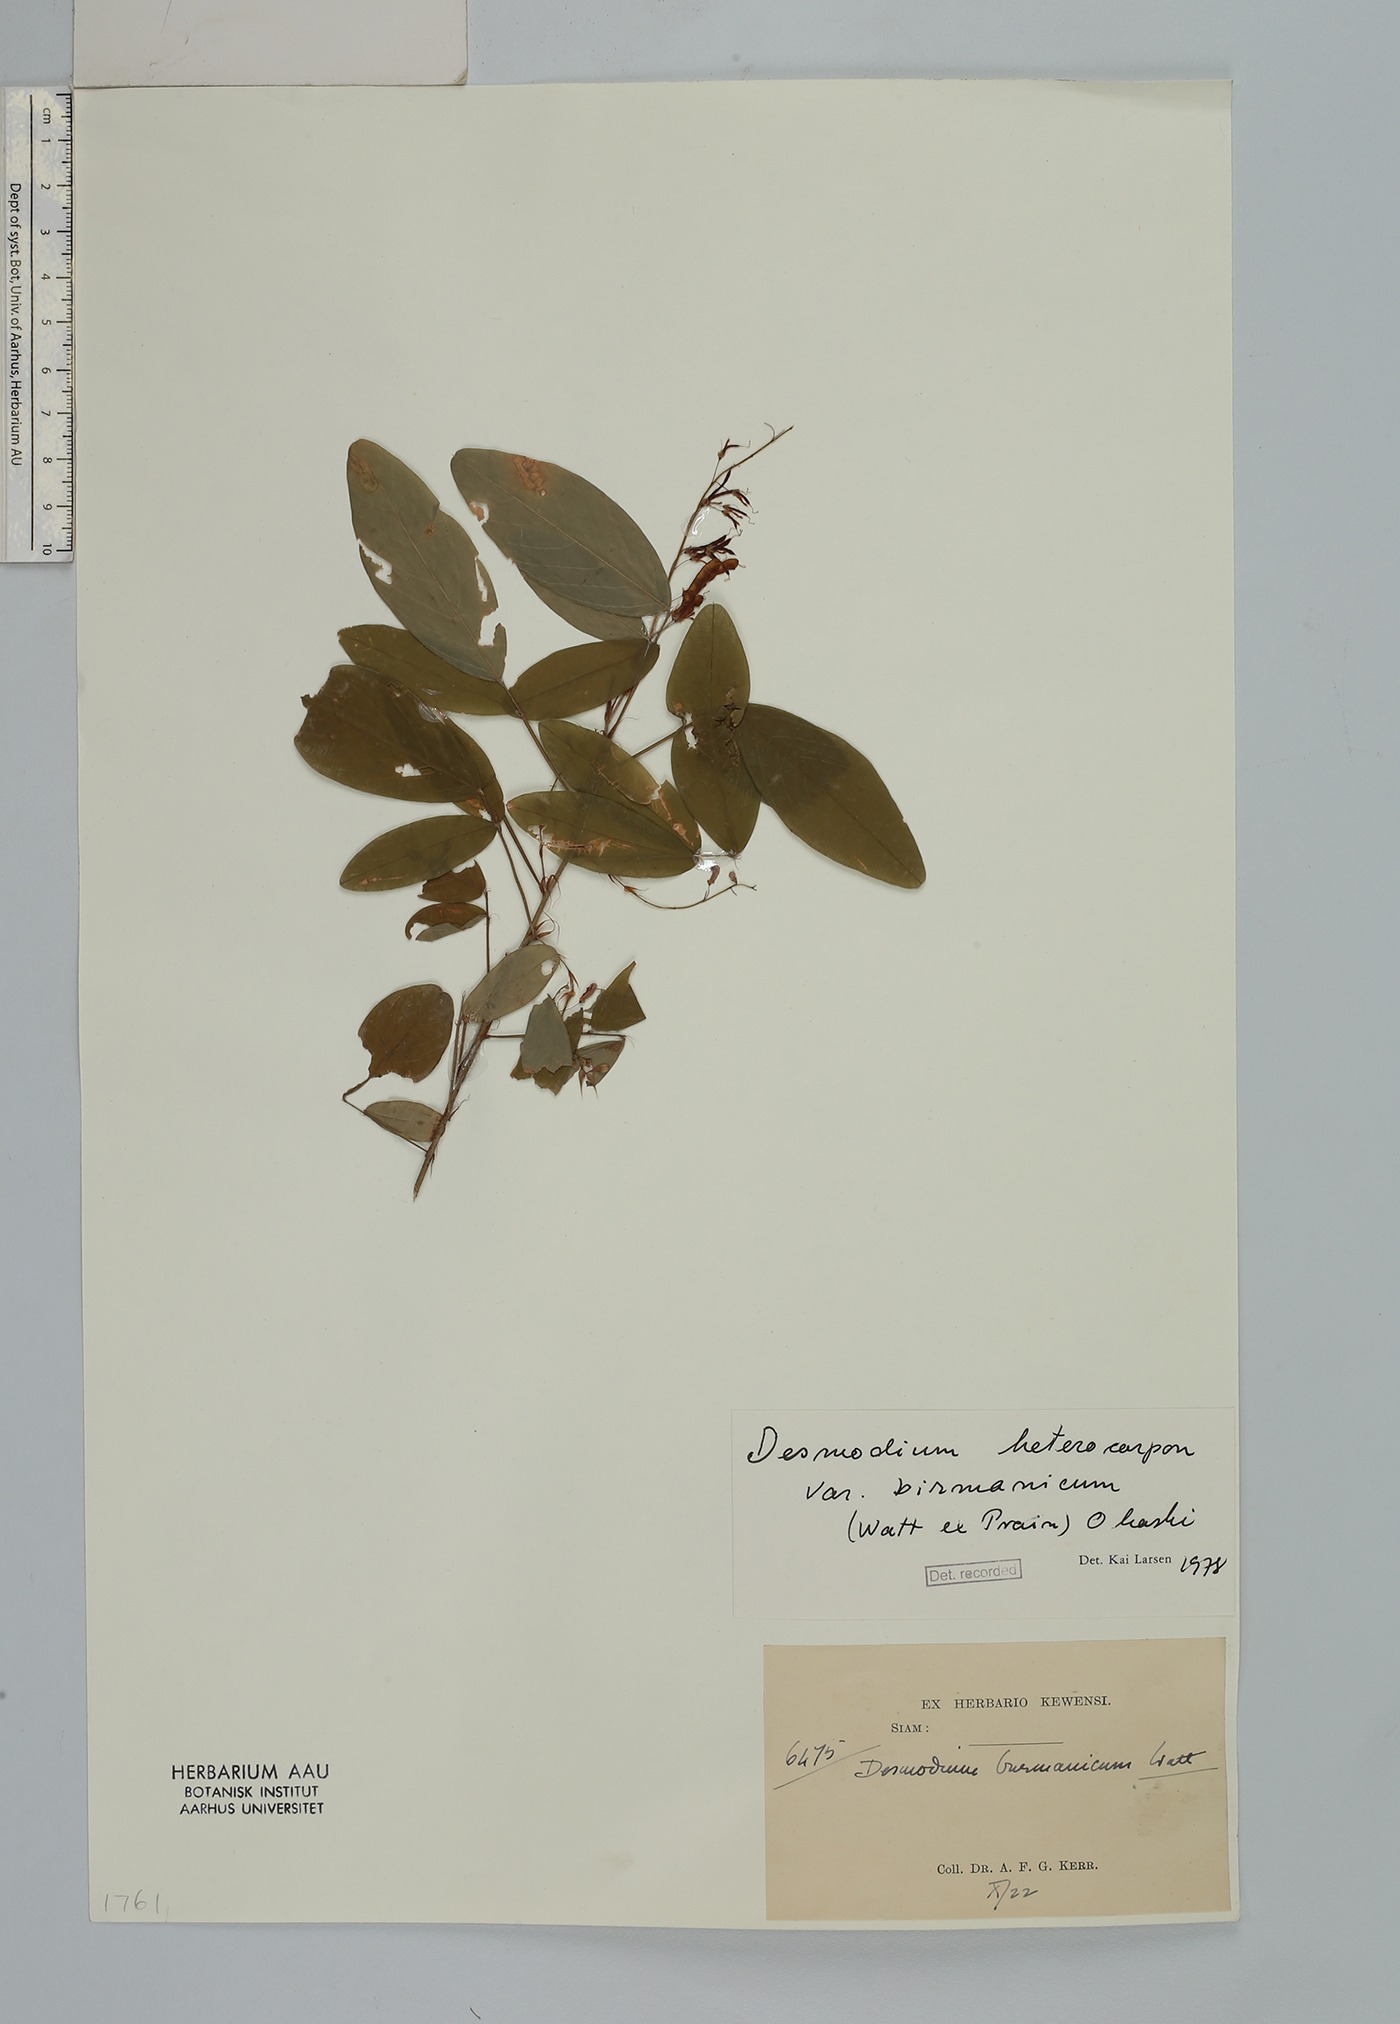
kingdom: Plantae
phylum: Tracheophyta
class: Magnoliopsida
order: Fabales
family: Fabaceae
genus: Grona
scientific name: Grona heterocarpos
